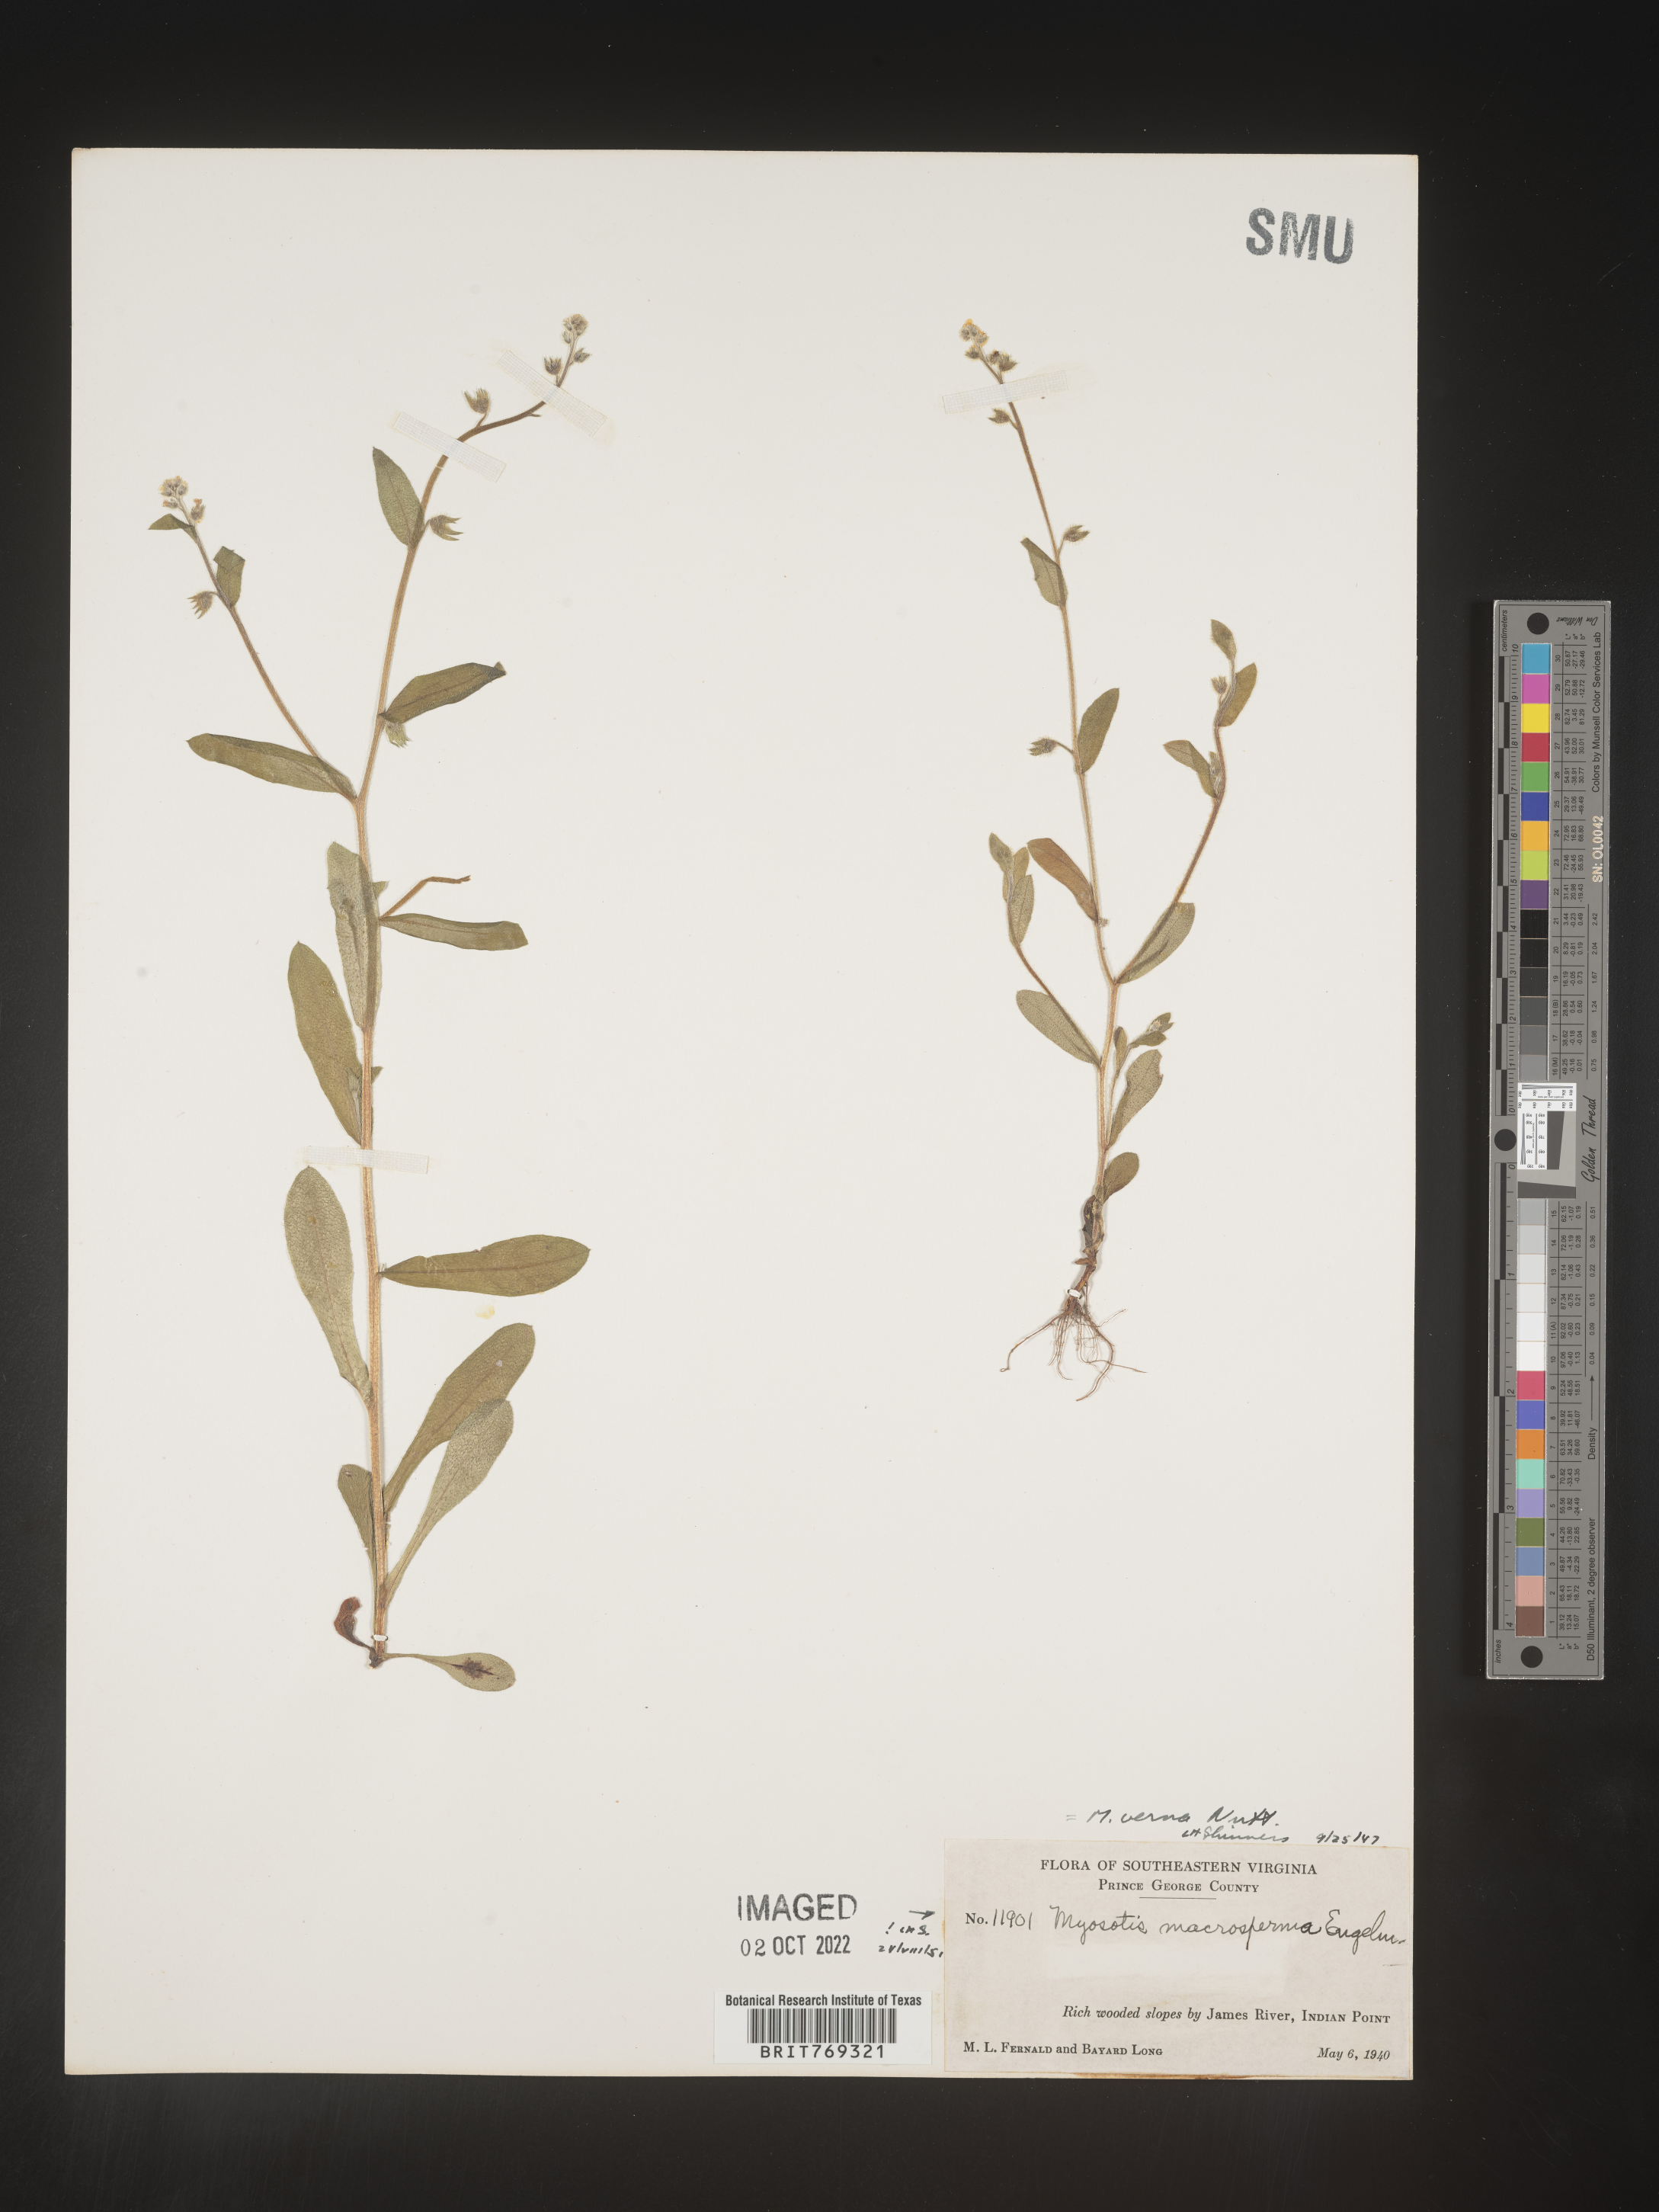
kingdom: Plantae
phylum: Tracheophyta
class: Magnoliopsida
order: Boraginales
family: Boraginaceae
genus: Myosotis
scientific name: Myosotis macrosperma
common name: Large-seed forget-me-not
